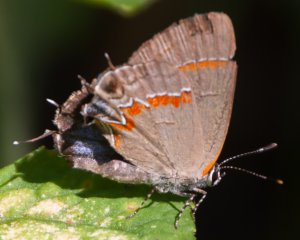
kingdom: Animalia
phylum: Arthropoda
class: Insecta
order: Lepidoptera
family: Lycaenidae
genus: Calycopis
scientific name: Calycopis cecrops
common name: Red-banded Hairstreak
